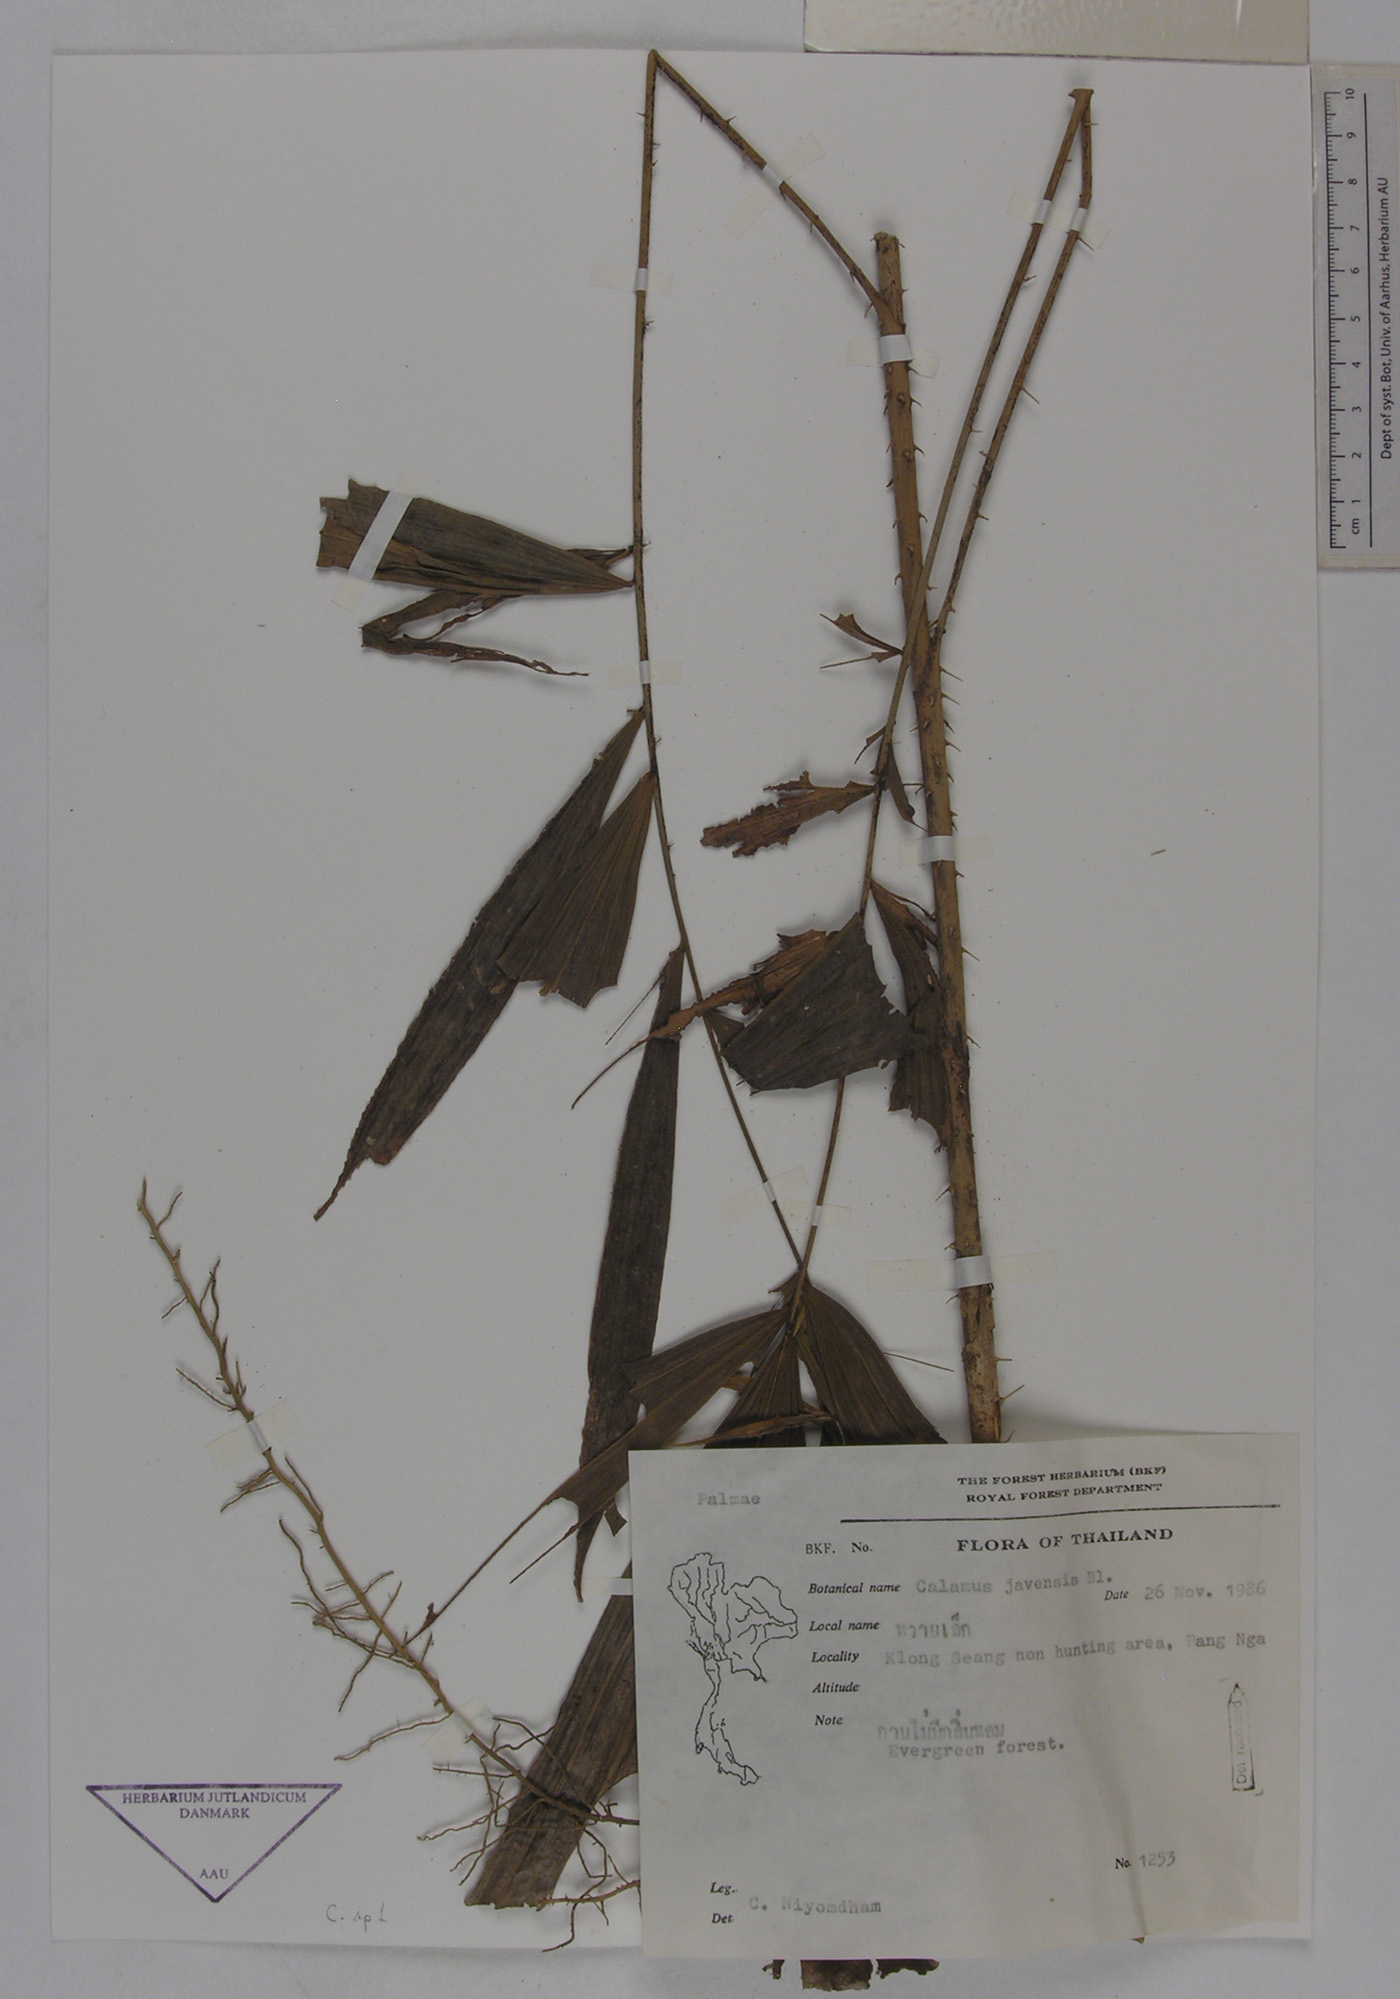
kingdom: Plantae
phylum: Tracheophyta
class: Liliopsida
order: Arecales
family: Arecaceae
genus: Calamus
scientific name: Calamus javensis
